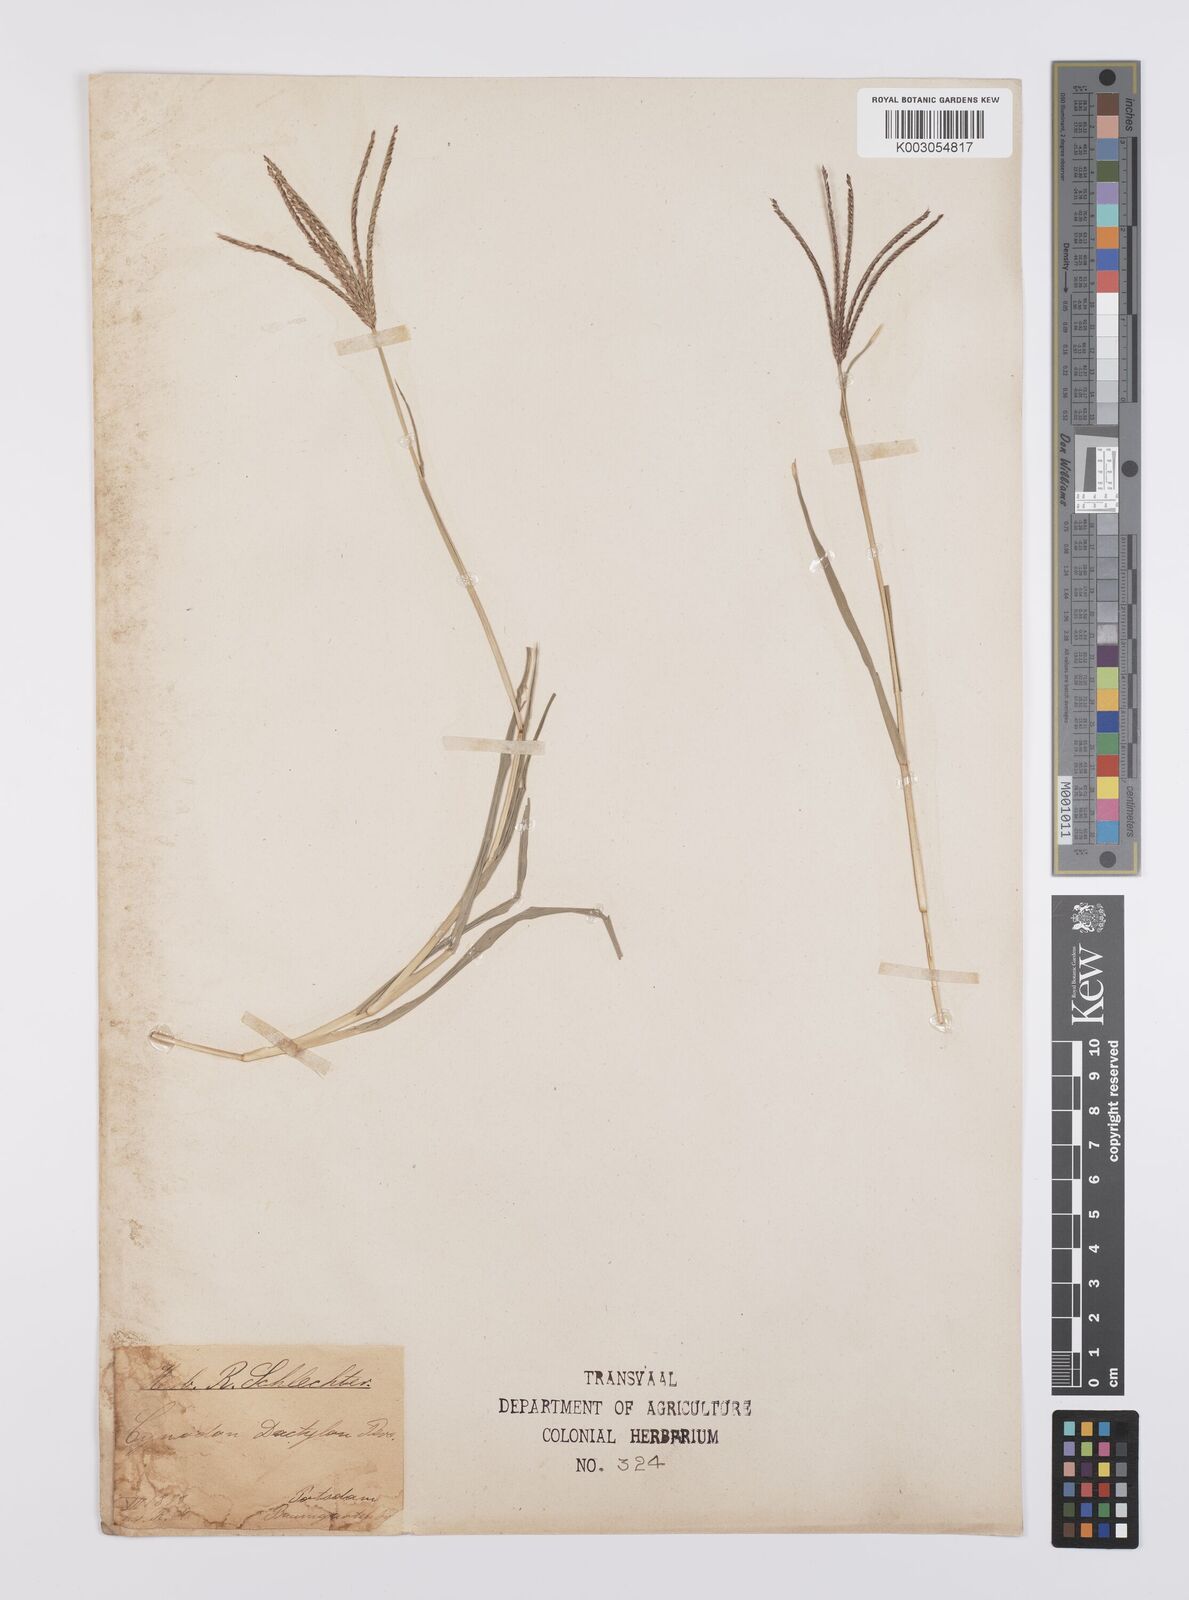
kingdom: Plantae
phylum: Tracheophyta
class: Liliopsida
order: Poales
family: Poaceae
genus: Cynodon
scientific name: Cynodon dactylon
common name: Bermuda grass
